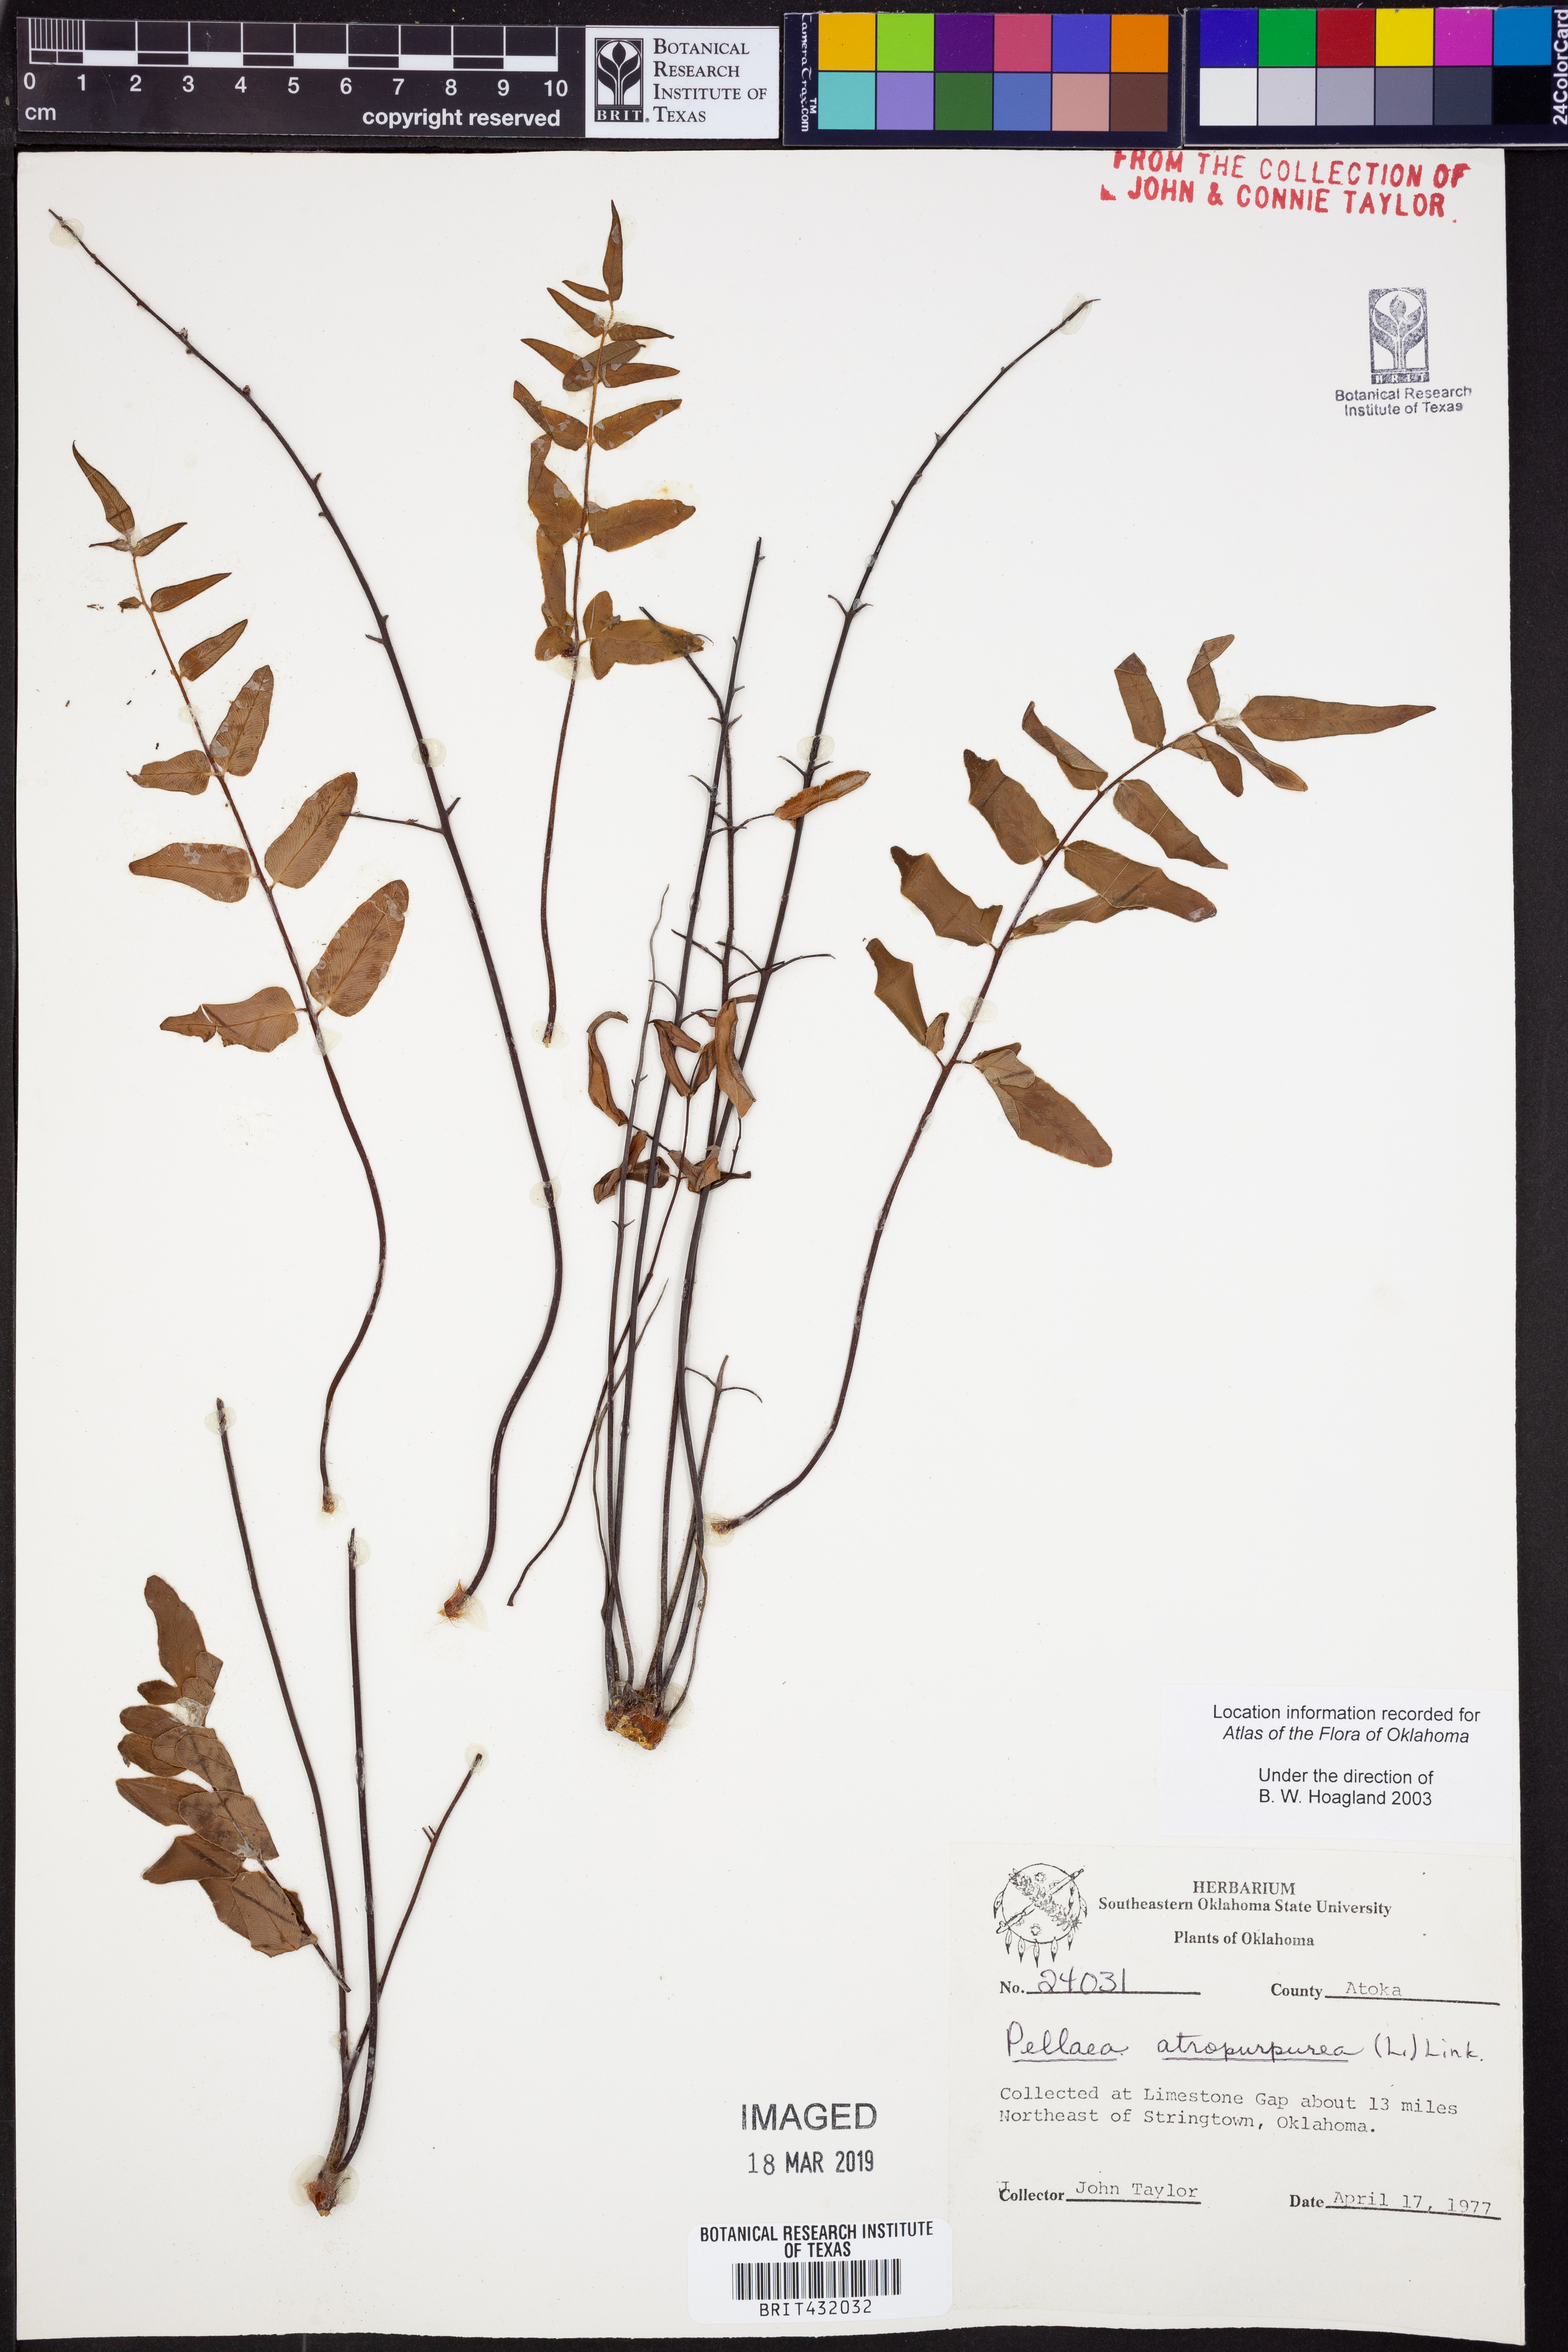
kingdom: Plantae
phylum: Tracheophyta
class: Polypodiopsida
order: Polypodiales
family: Pteridaceae
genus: Pellaea
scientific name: Pellaea atropurpurea
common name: Hairy cliffbrake
